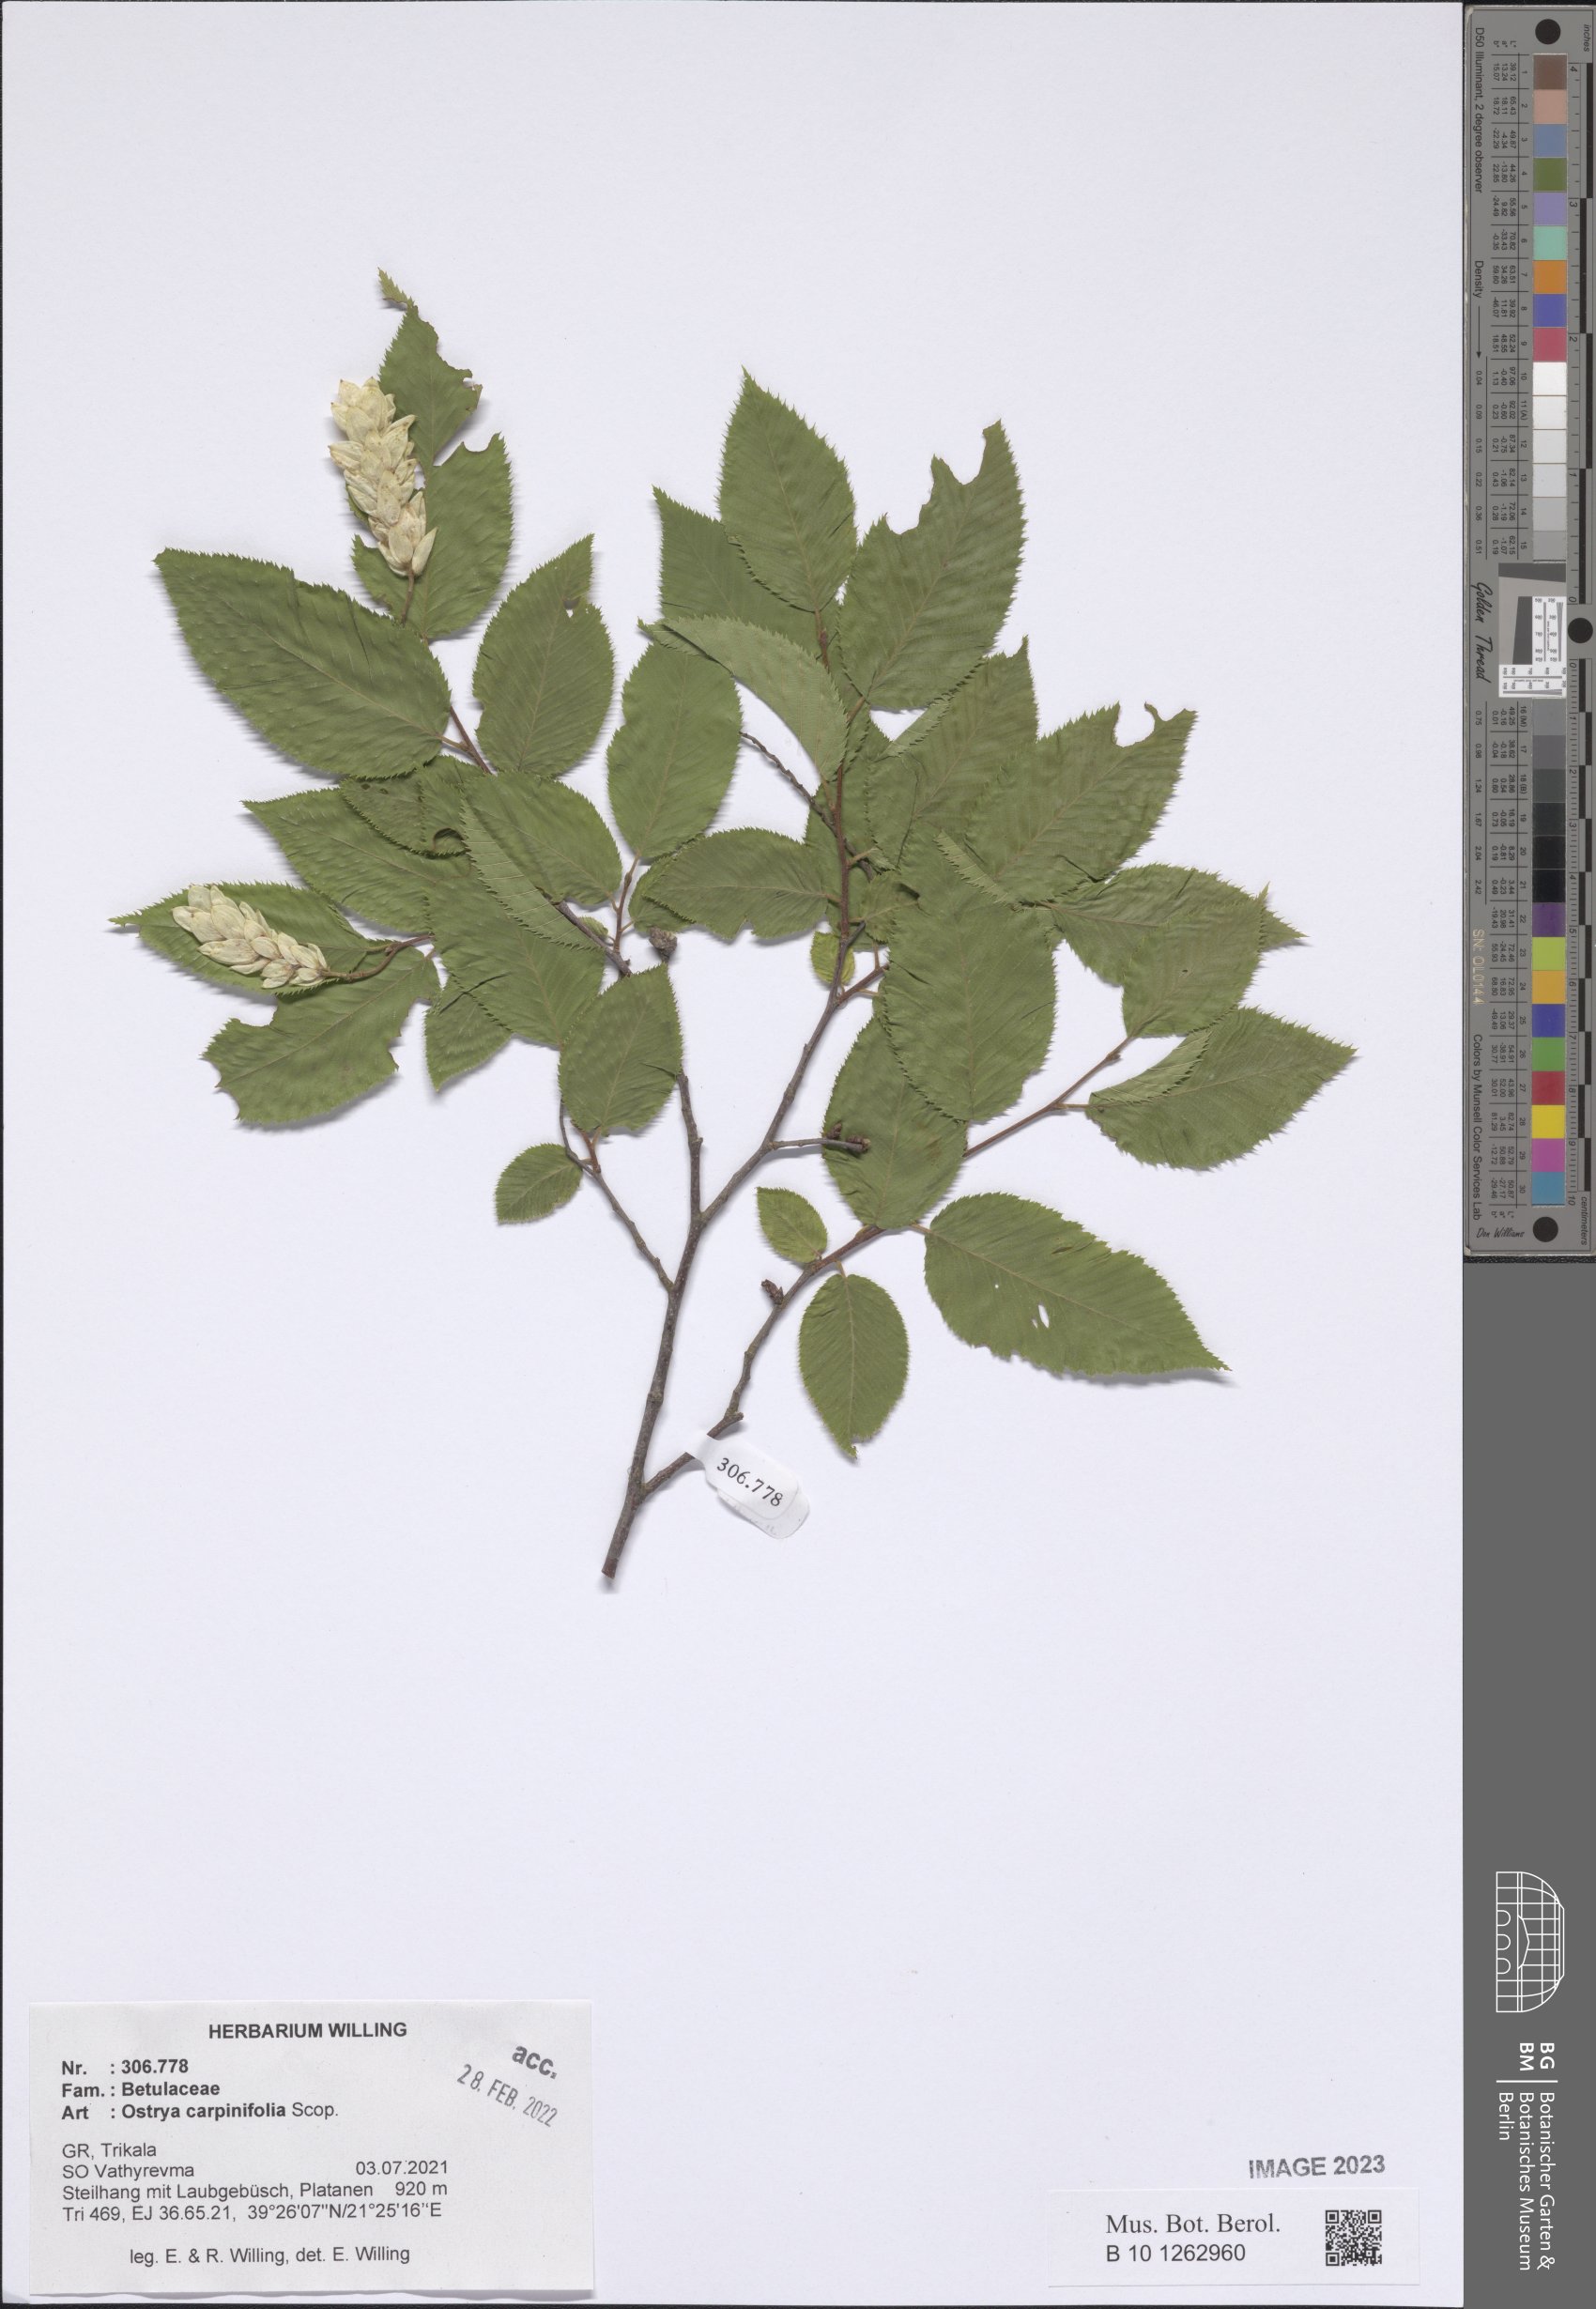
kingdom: Plantae
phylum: Tracheophyta
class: Magnoliopsida
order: Fagales
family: Betulaceae
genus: Ostrya
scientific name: Ostrya carpinifolia
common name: European hop-hornbeam
